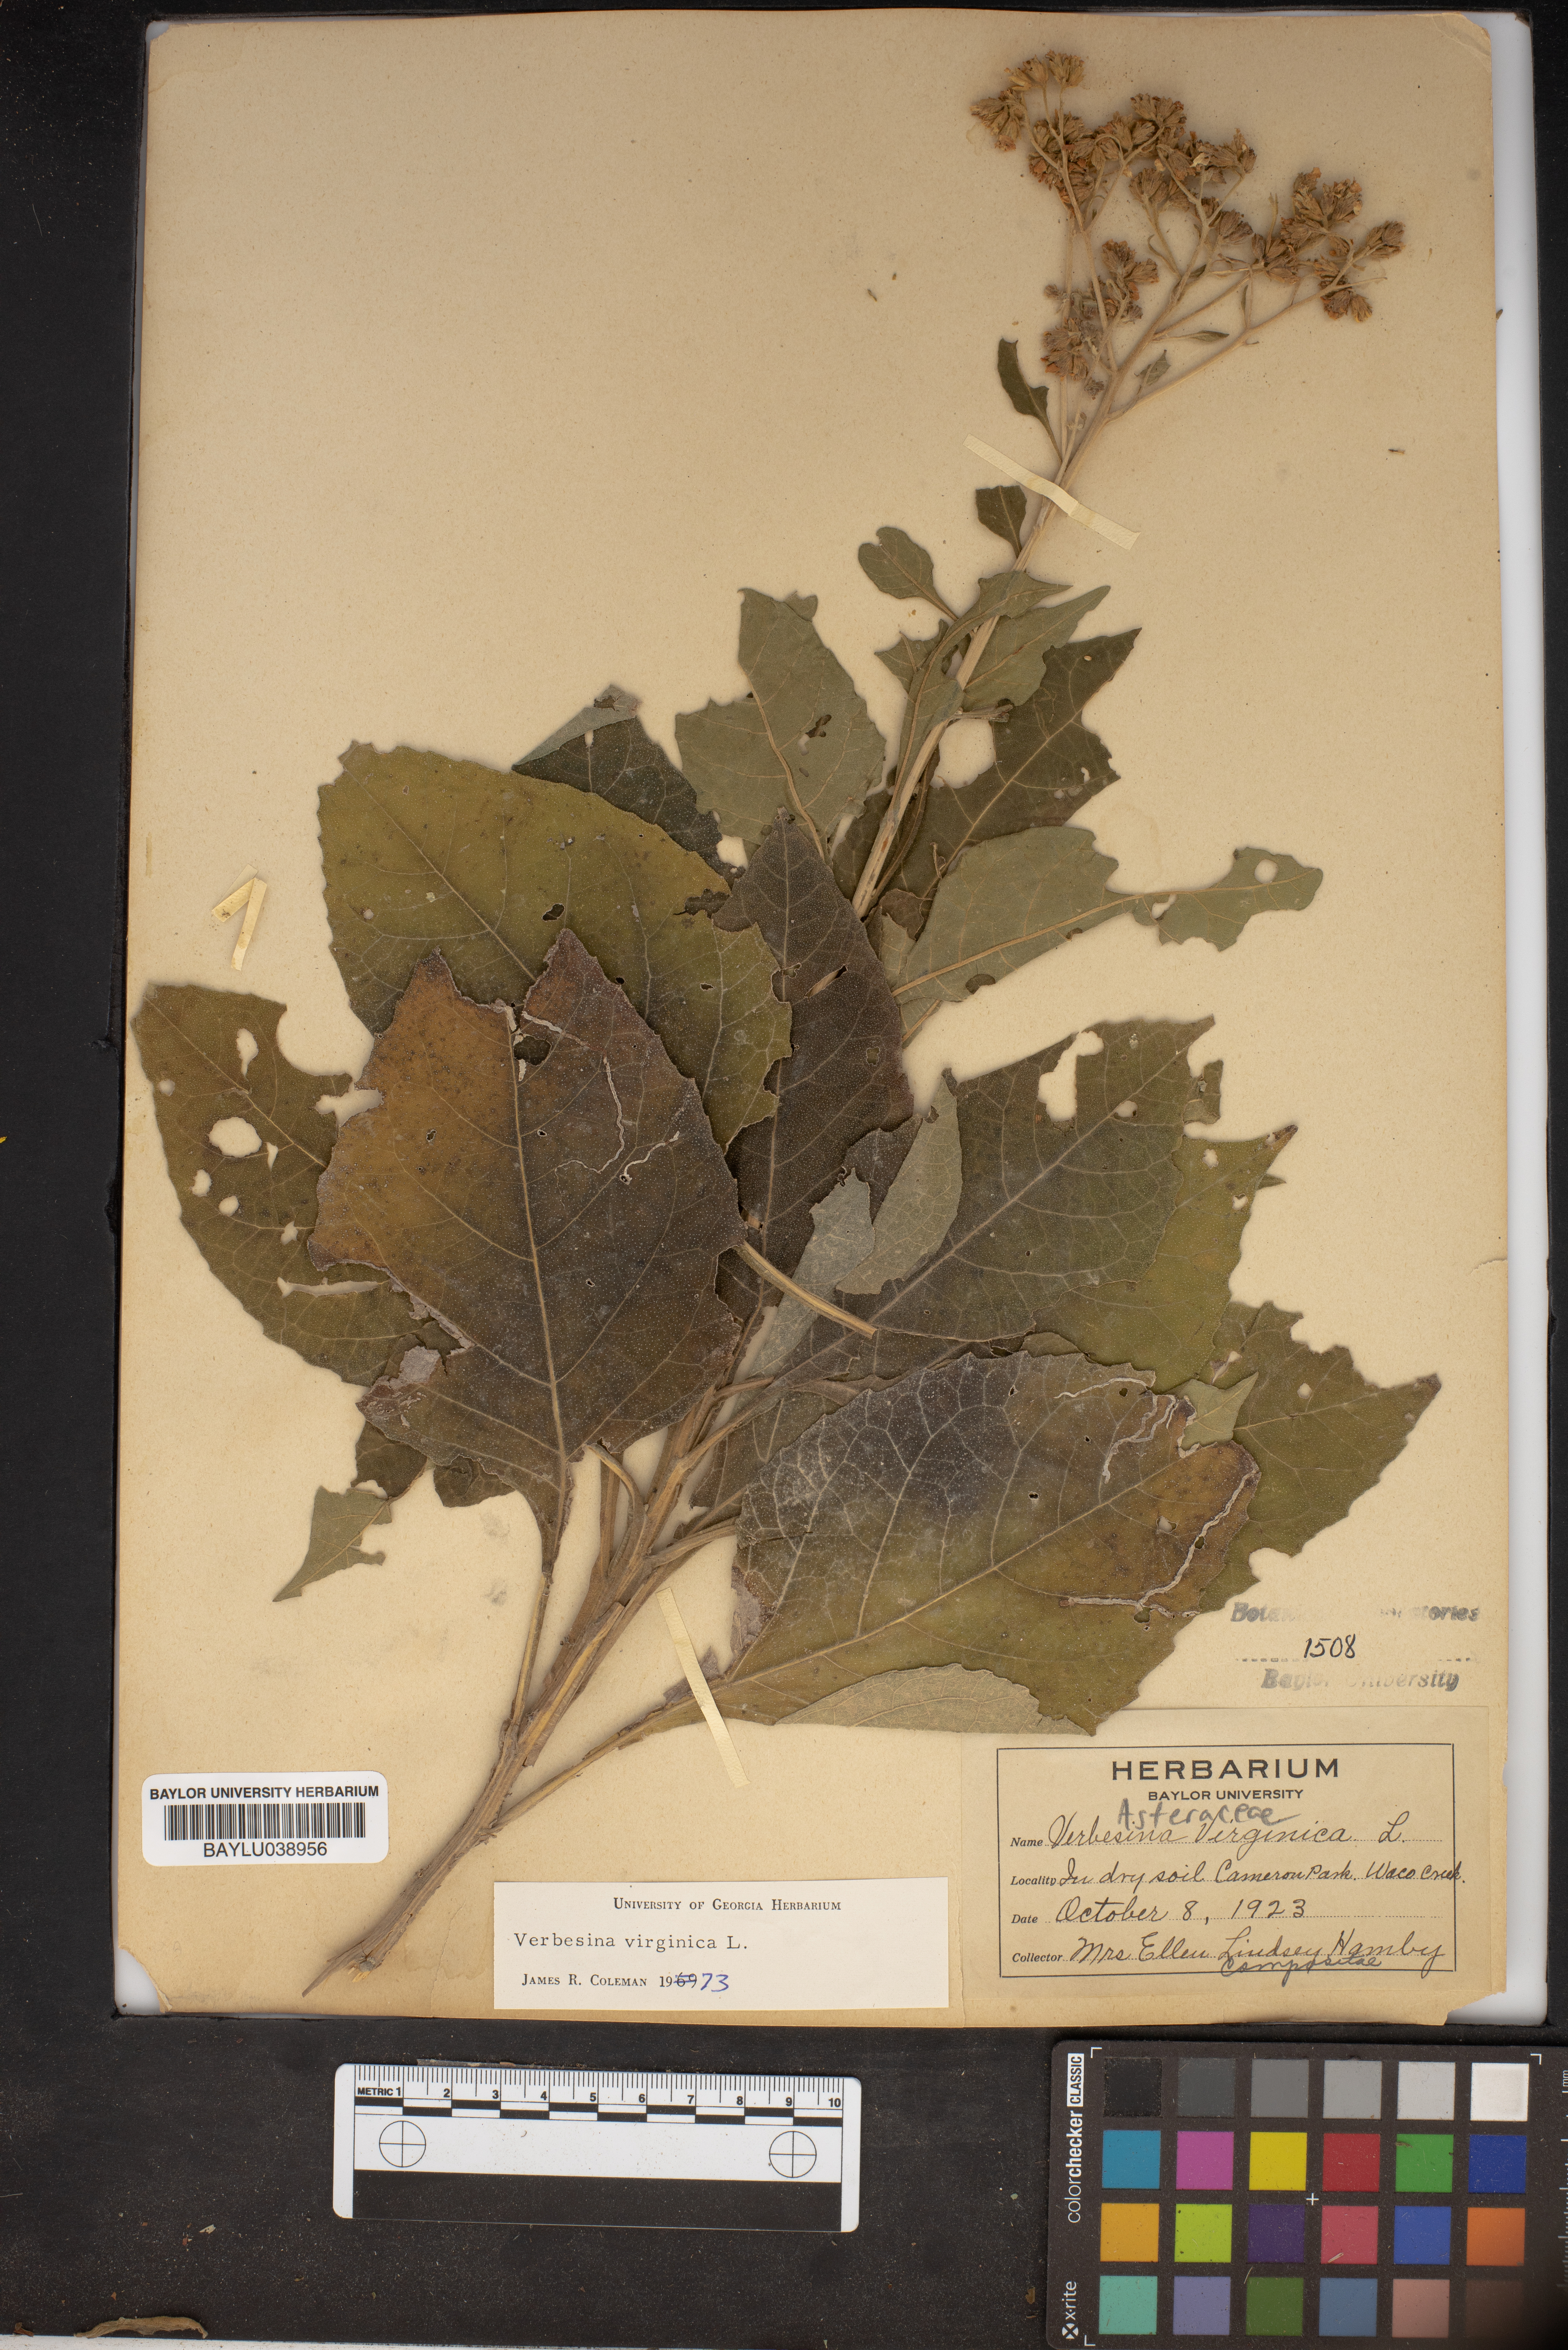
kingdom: Plantae
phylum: Tracheophyta
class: Magnoliopsida
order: Asterales
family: Asteraceae
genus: Verbesina
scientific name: Verbesina virginica
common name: Frostweed
